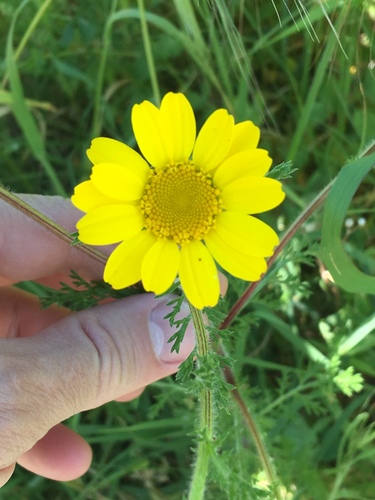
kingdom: Plantae
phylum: Tracheophyta
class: Magnoliopsida
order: Asterales
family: Asteraceae
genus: Glebionis
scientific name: Glebionis coronaria
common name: Crowndaisy
